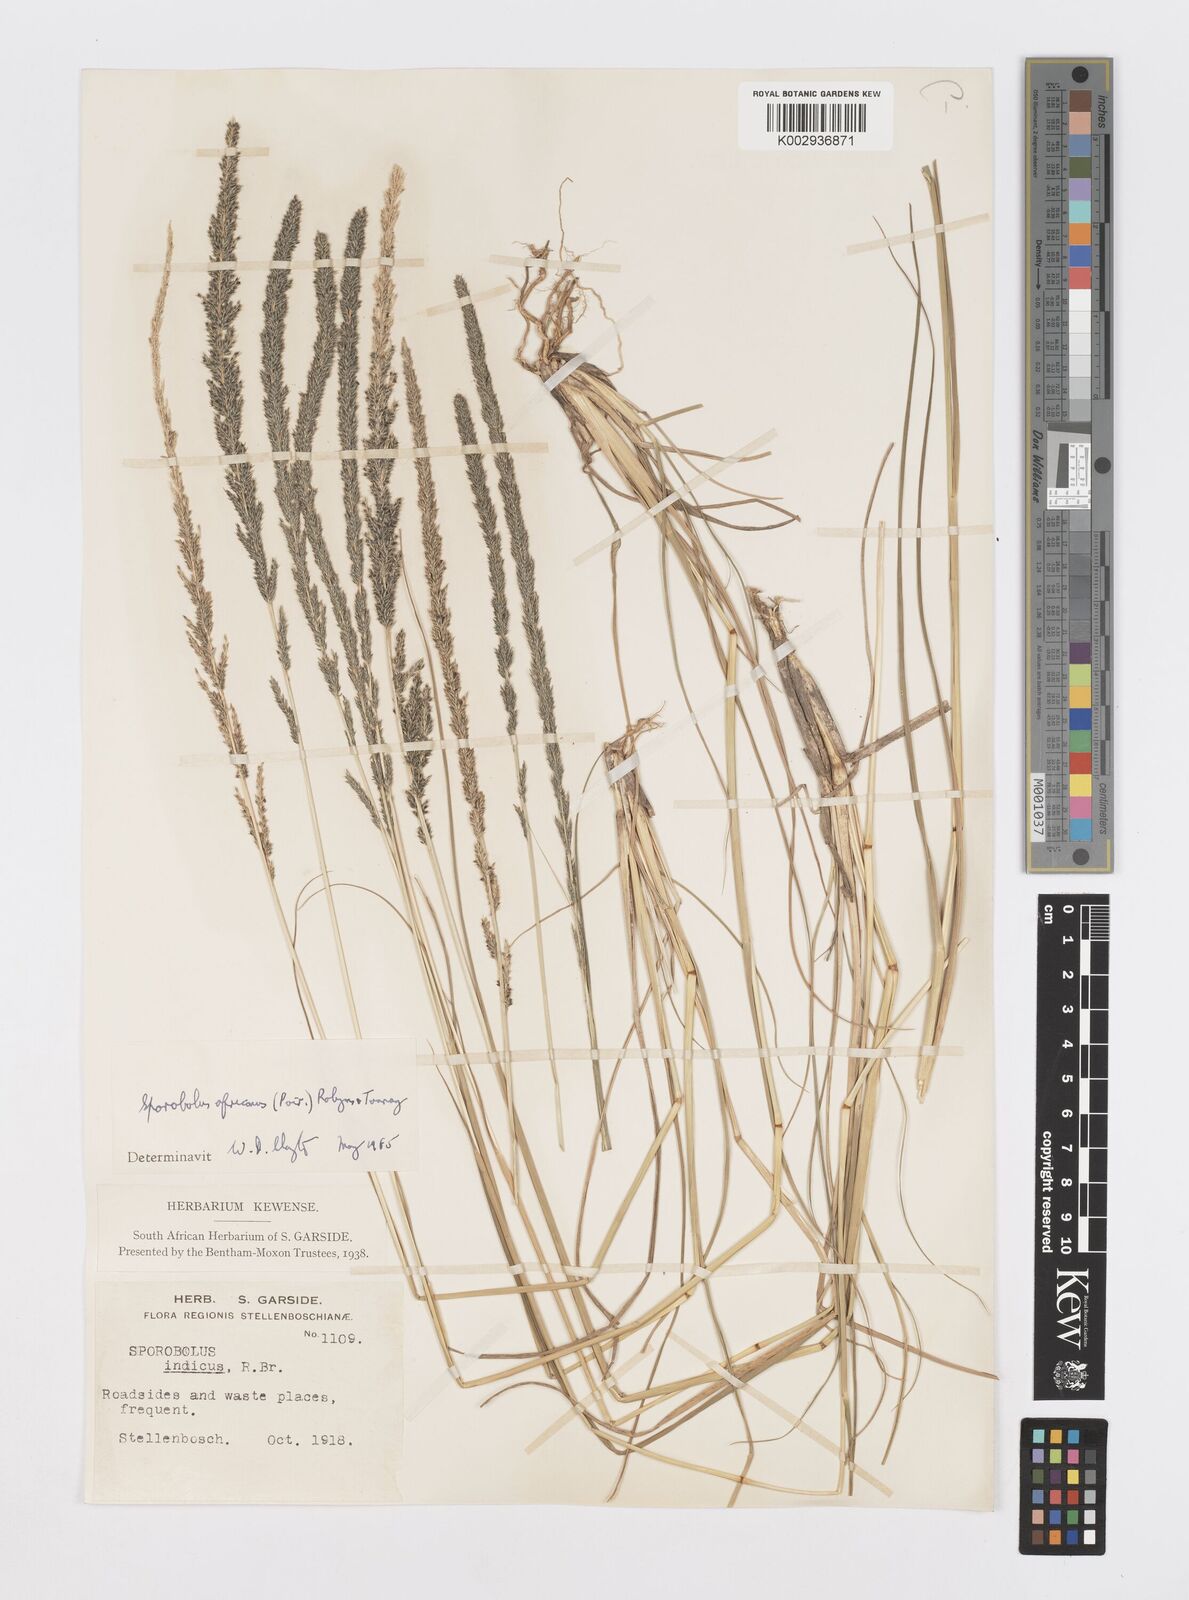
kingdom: Plantae
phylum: Tracheophyta
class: Liliopsida
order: Poales
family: Poaceae
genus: Sporobolus
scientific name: Sporobolus africanus
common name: African dropseed
